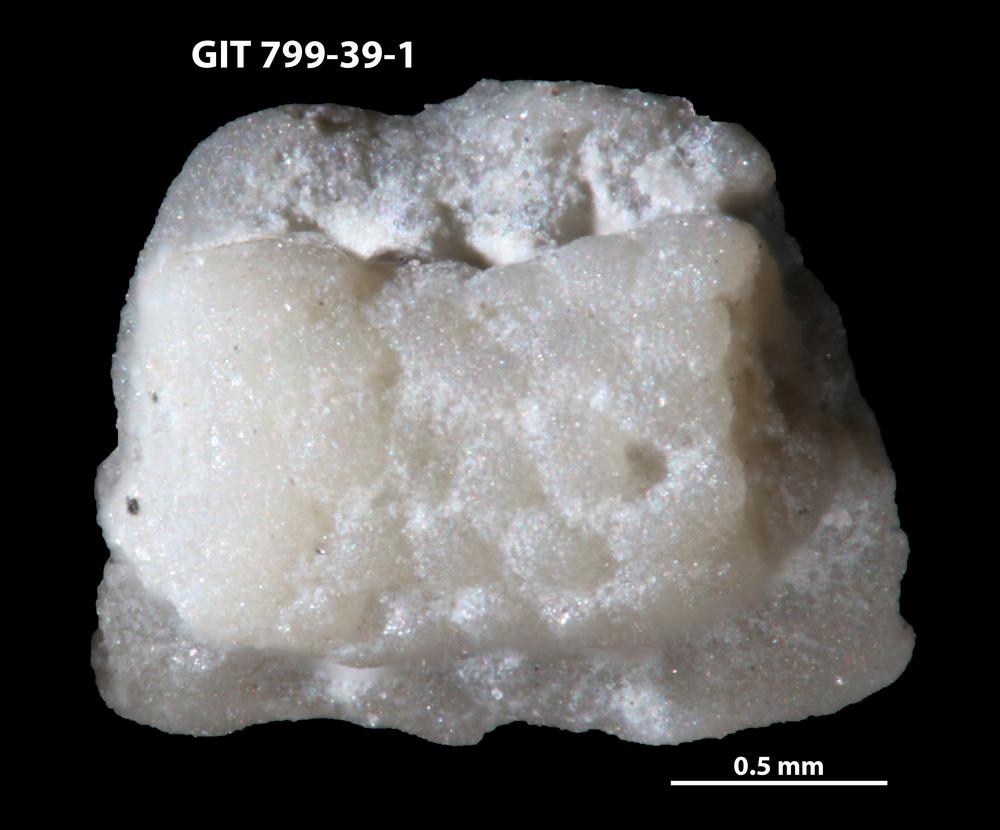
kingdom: Animalia
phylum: Echinodermata
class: Crinoidea
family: Cyclocystoididae
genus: Cyclocystoides
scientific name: Cyclocystoides
